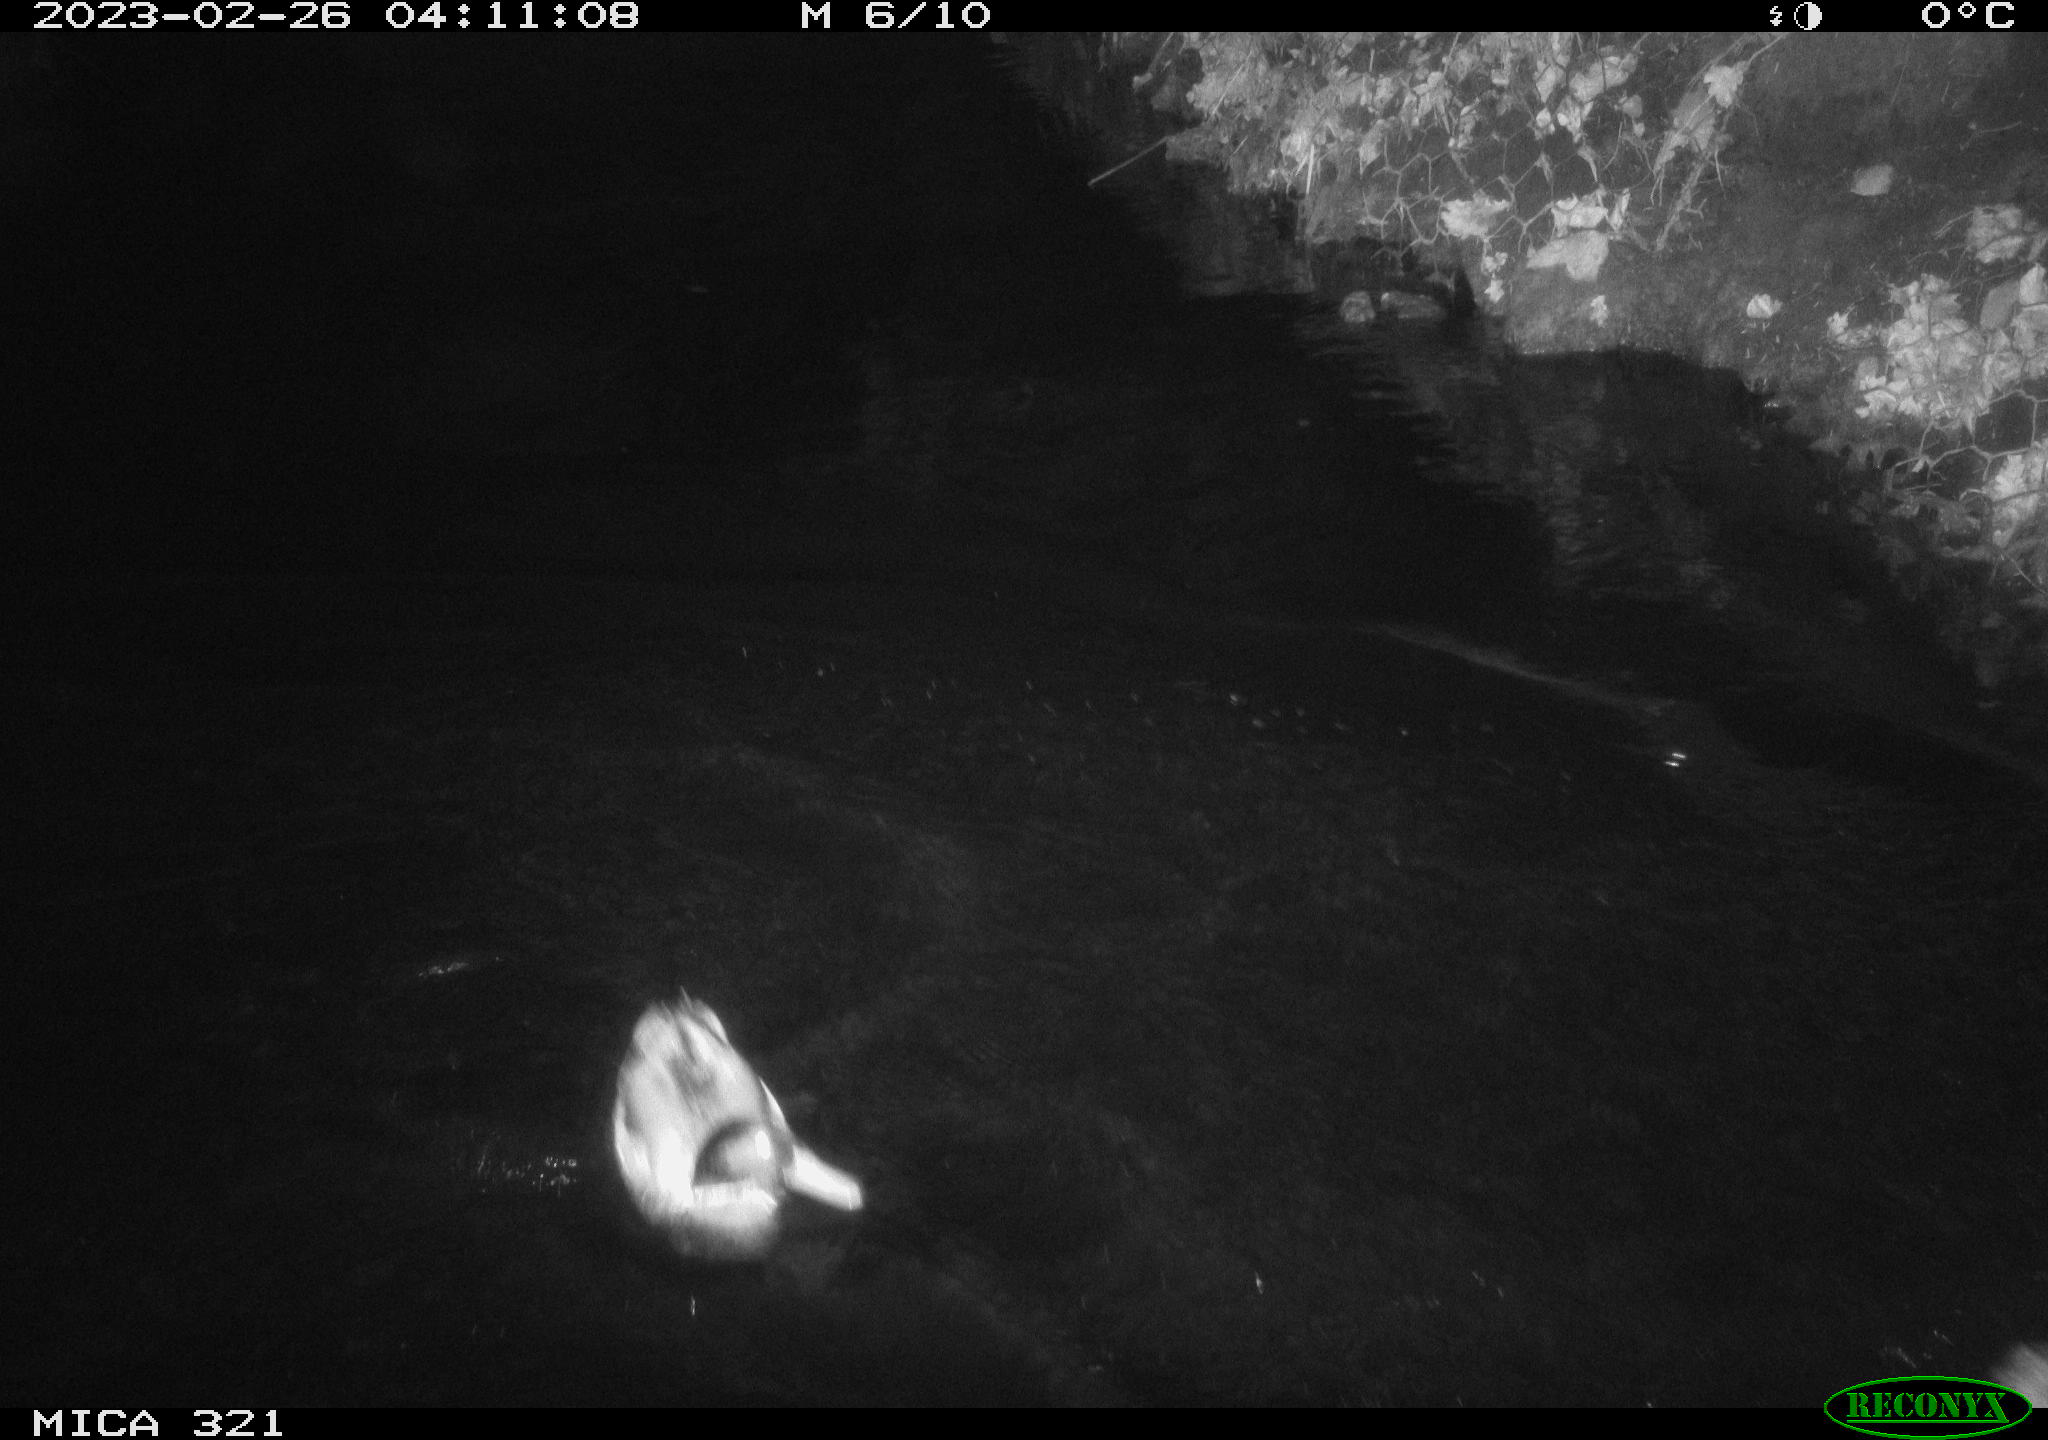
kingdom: Animalia
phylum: Chordata
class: Aves
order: Anseriformes
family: Anatidae
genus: Anas
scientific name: Anas
